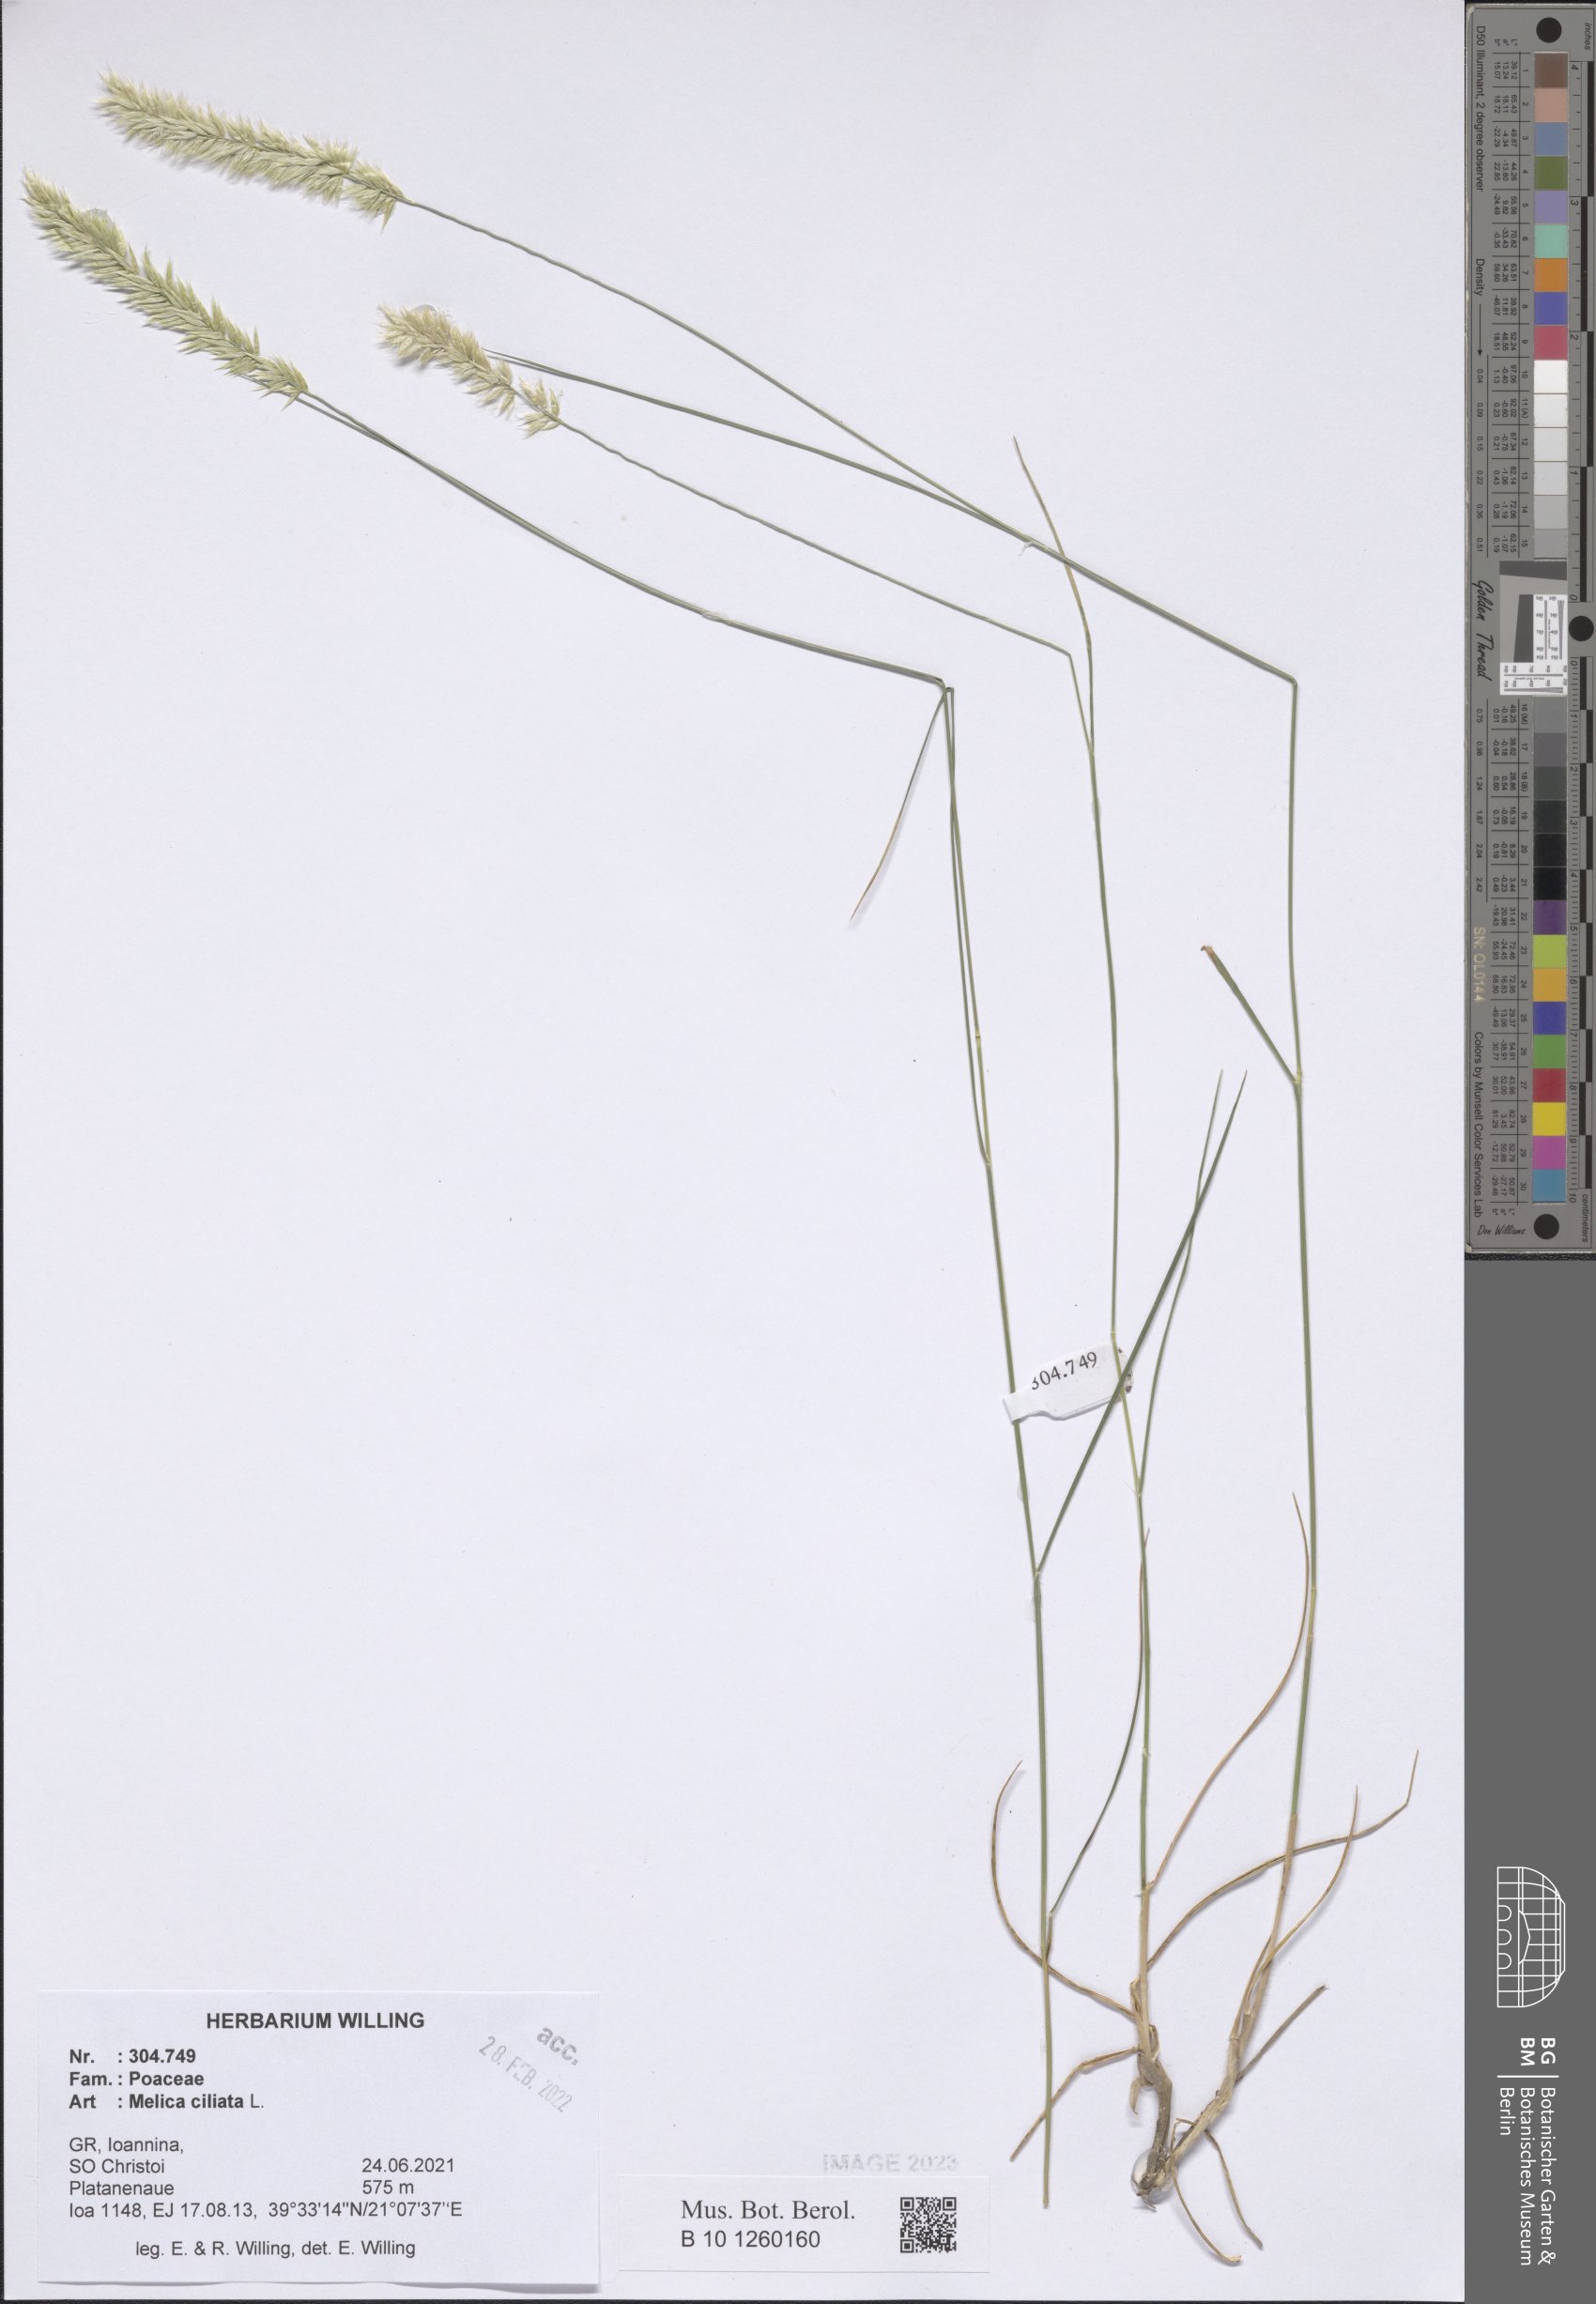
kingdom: Plantae
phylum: Tracheophyta
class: Liliopsida
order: Poales
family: Poaceae
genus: Melica
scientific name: Melica ciliata
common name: Hairy melicgrass
